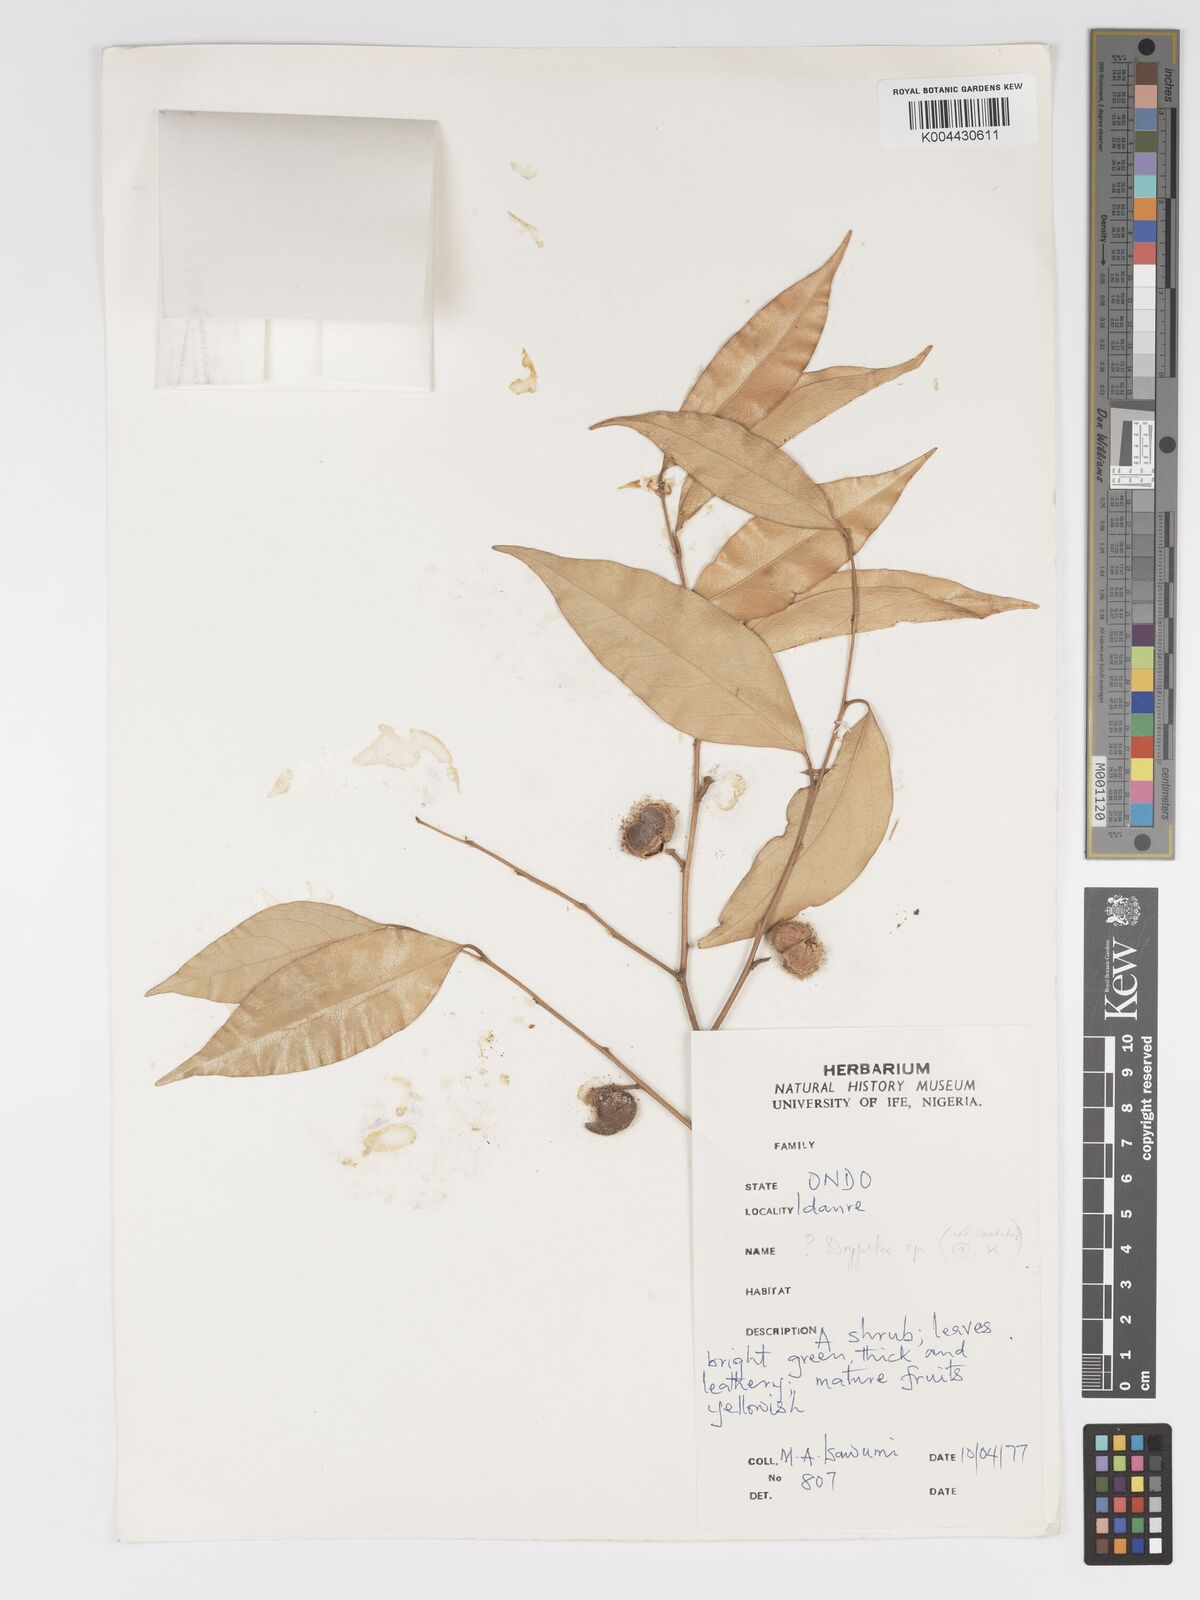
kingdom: Plantae
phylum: Tracheophyta
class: Magnoliopsida
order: Malpighiales
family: Putranjivaceae
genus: Drypetes
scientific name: Drypetes
